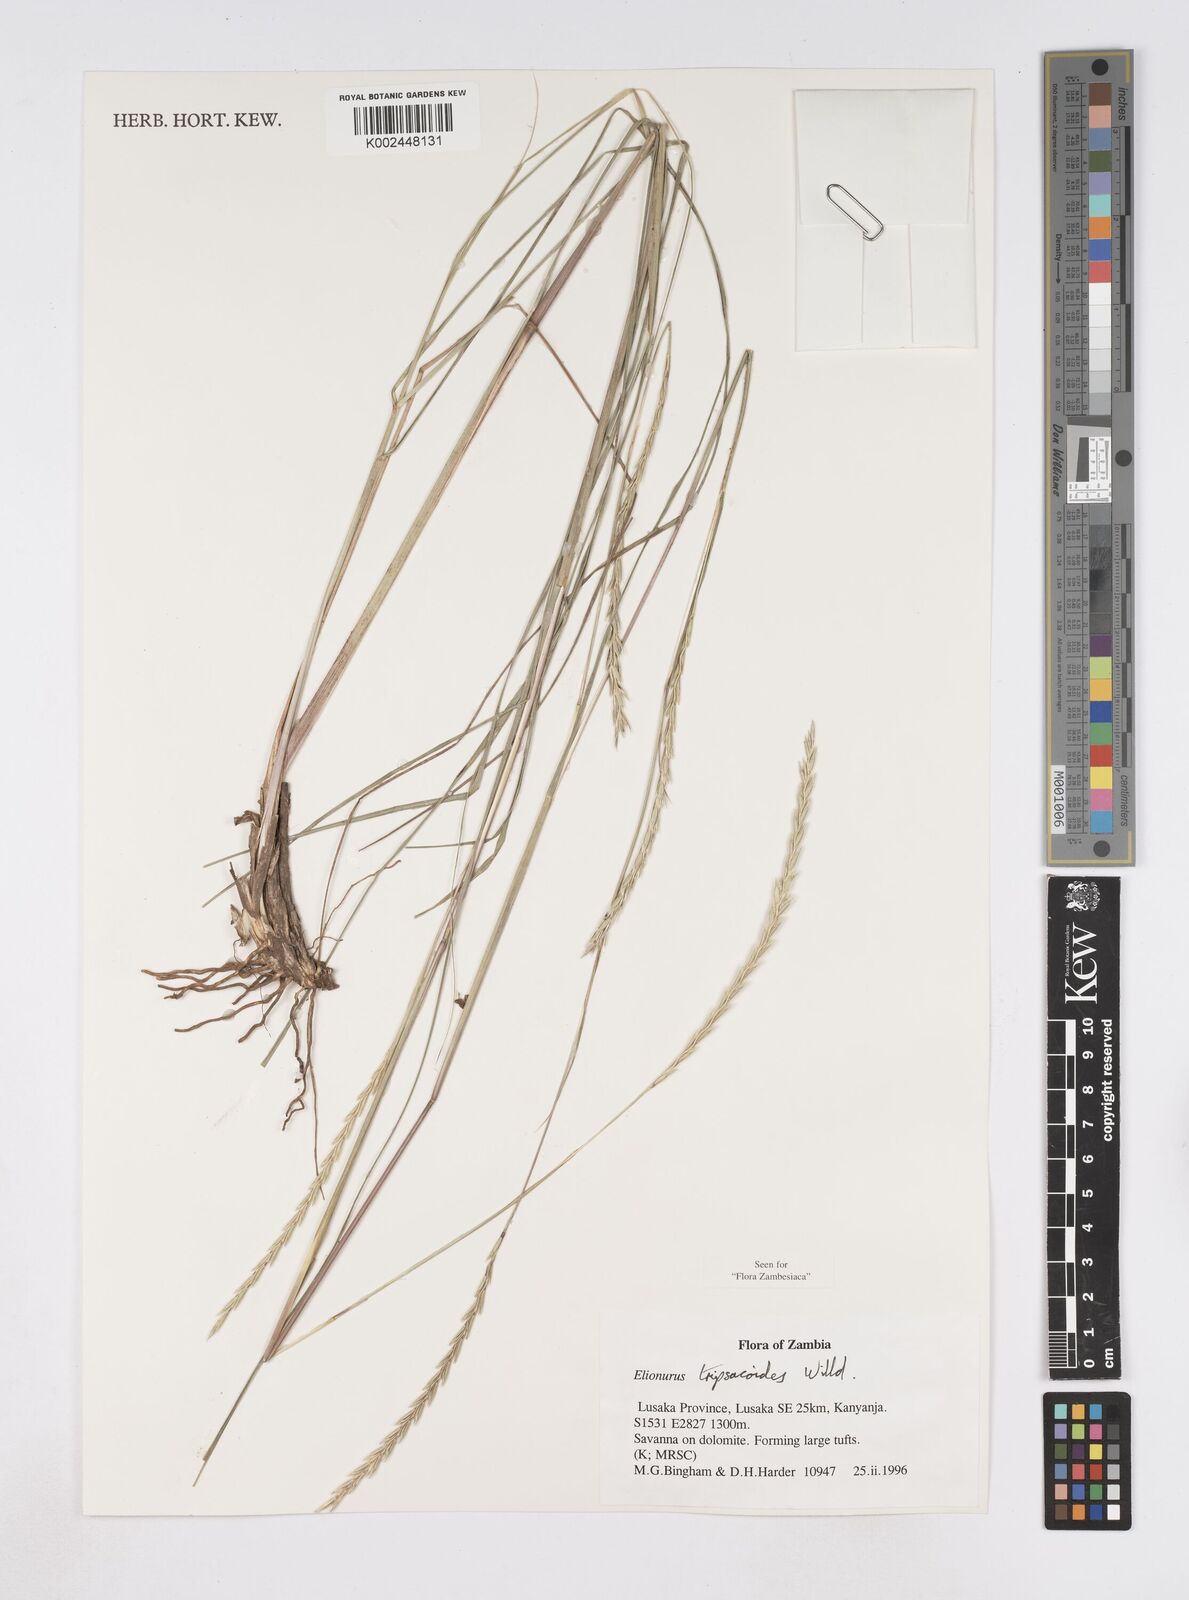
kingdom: Plantae
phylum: Tracheophyta
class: Liliopsida
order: Poales
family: Poaceae
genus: Elionurus
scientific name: Elionurus tripsacoides
